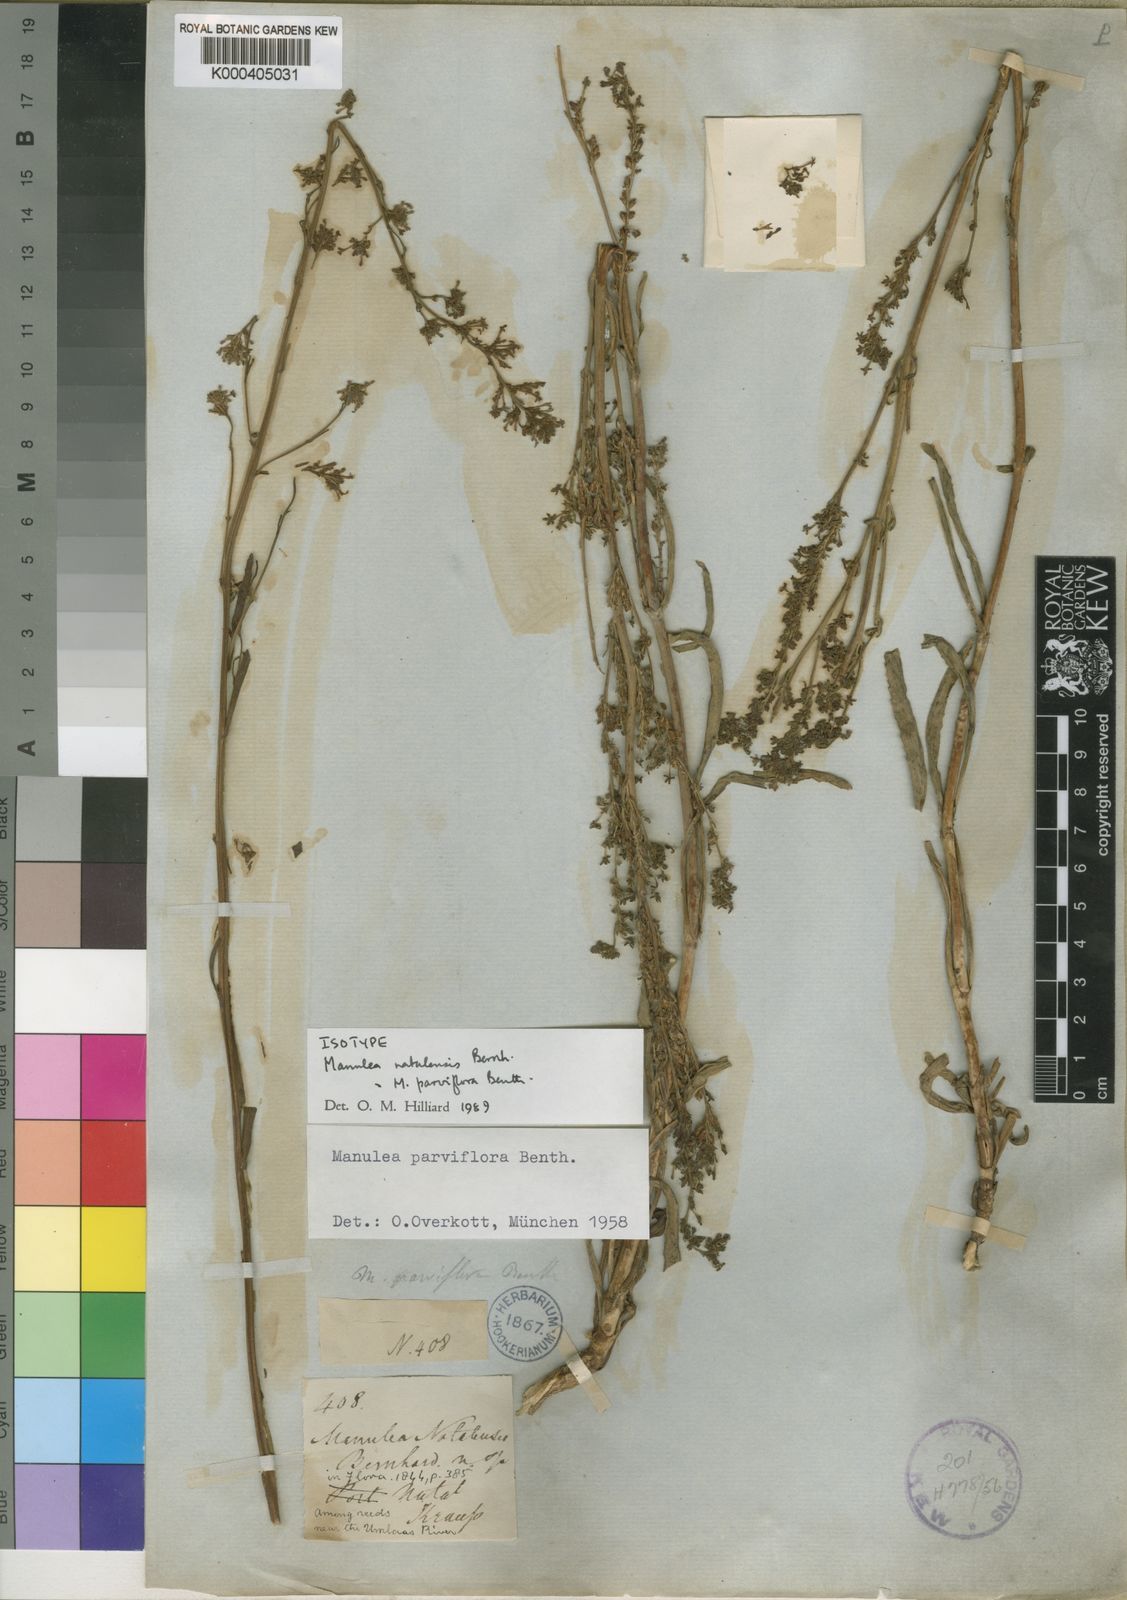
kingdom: Plantae
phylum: Tracheophyta
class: Magnoliopsida
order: Lamiales
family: Scrophulariaceae
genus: Manulea
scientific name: Manulea parviflora
